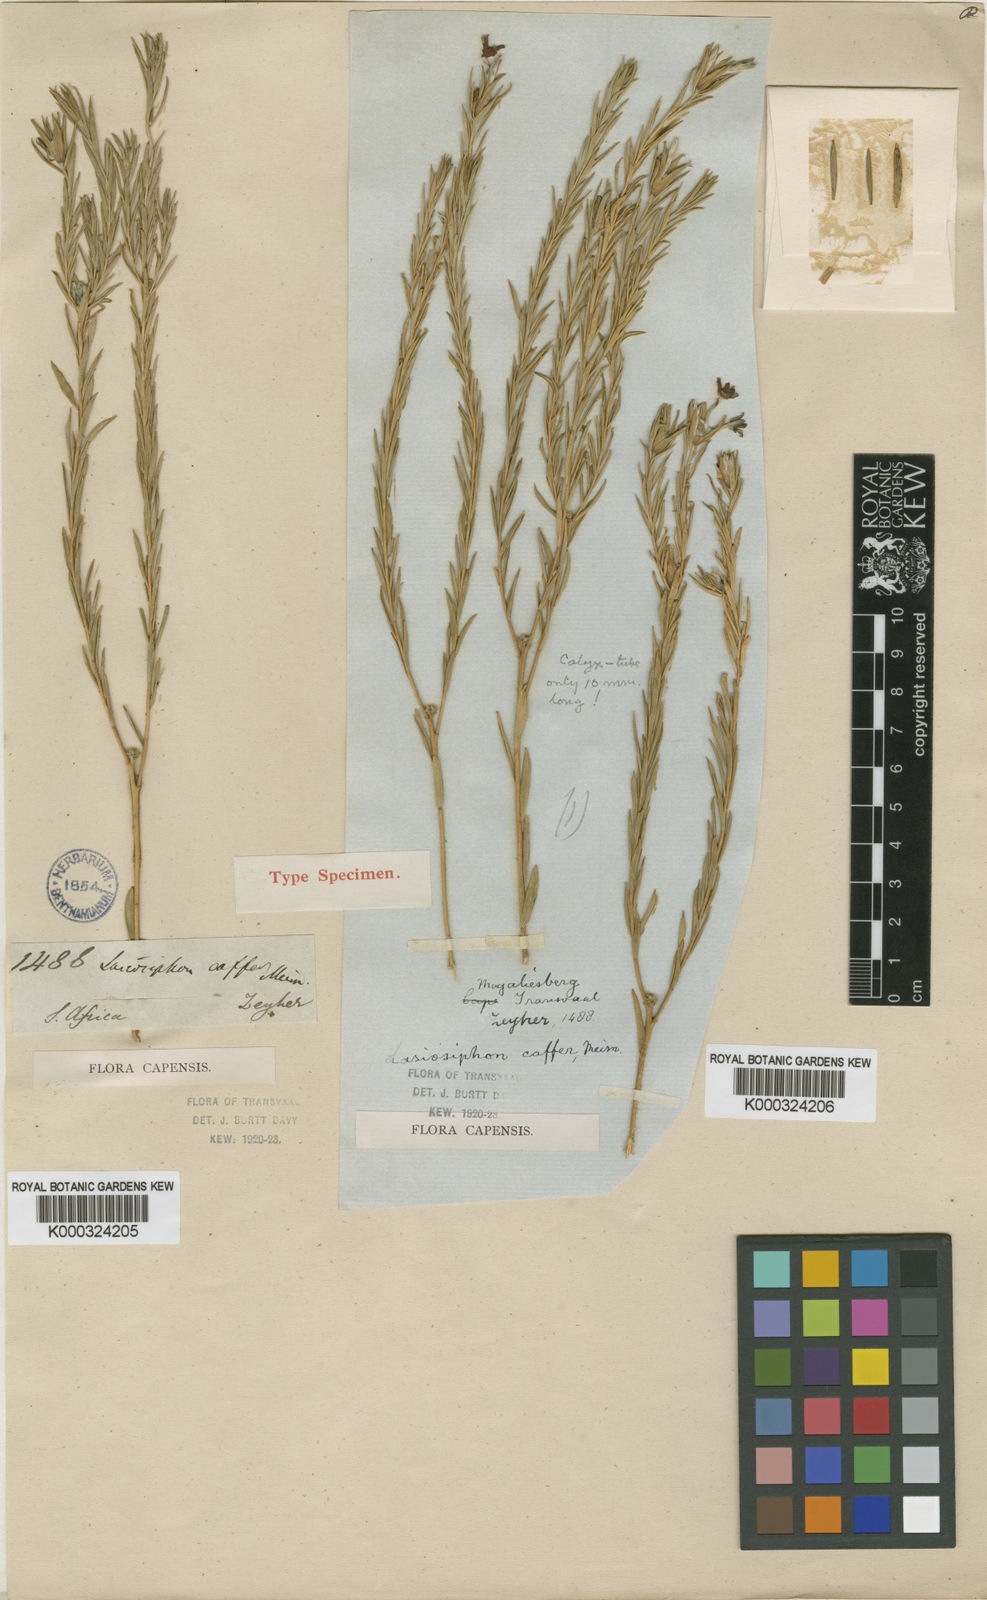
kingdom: Plantae
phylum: Tracheophyta
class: Magnoliopsida
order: Malvales
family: Thymelaeaceae
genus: Gnidia
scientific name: Gnidia caffra
